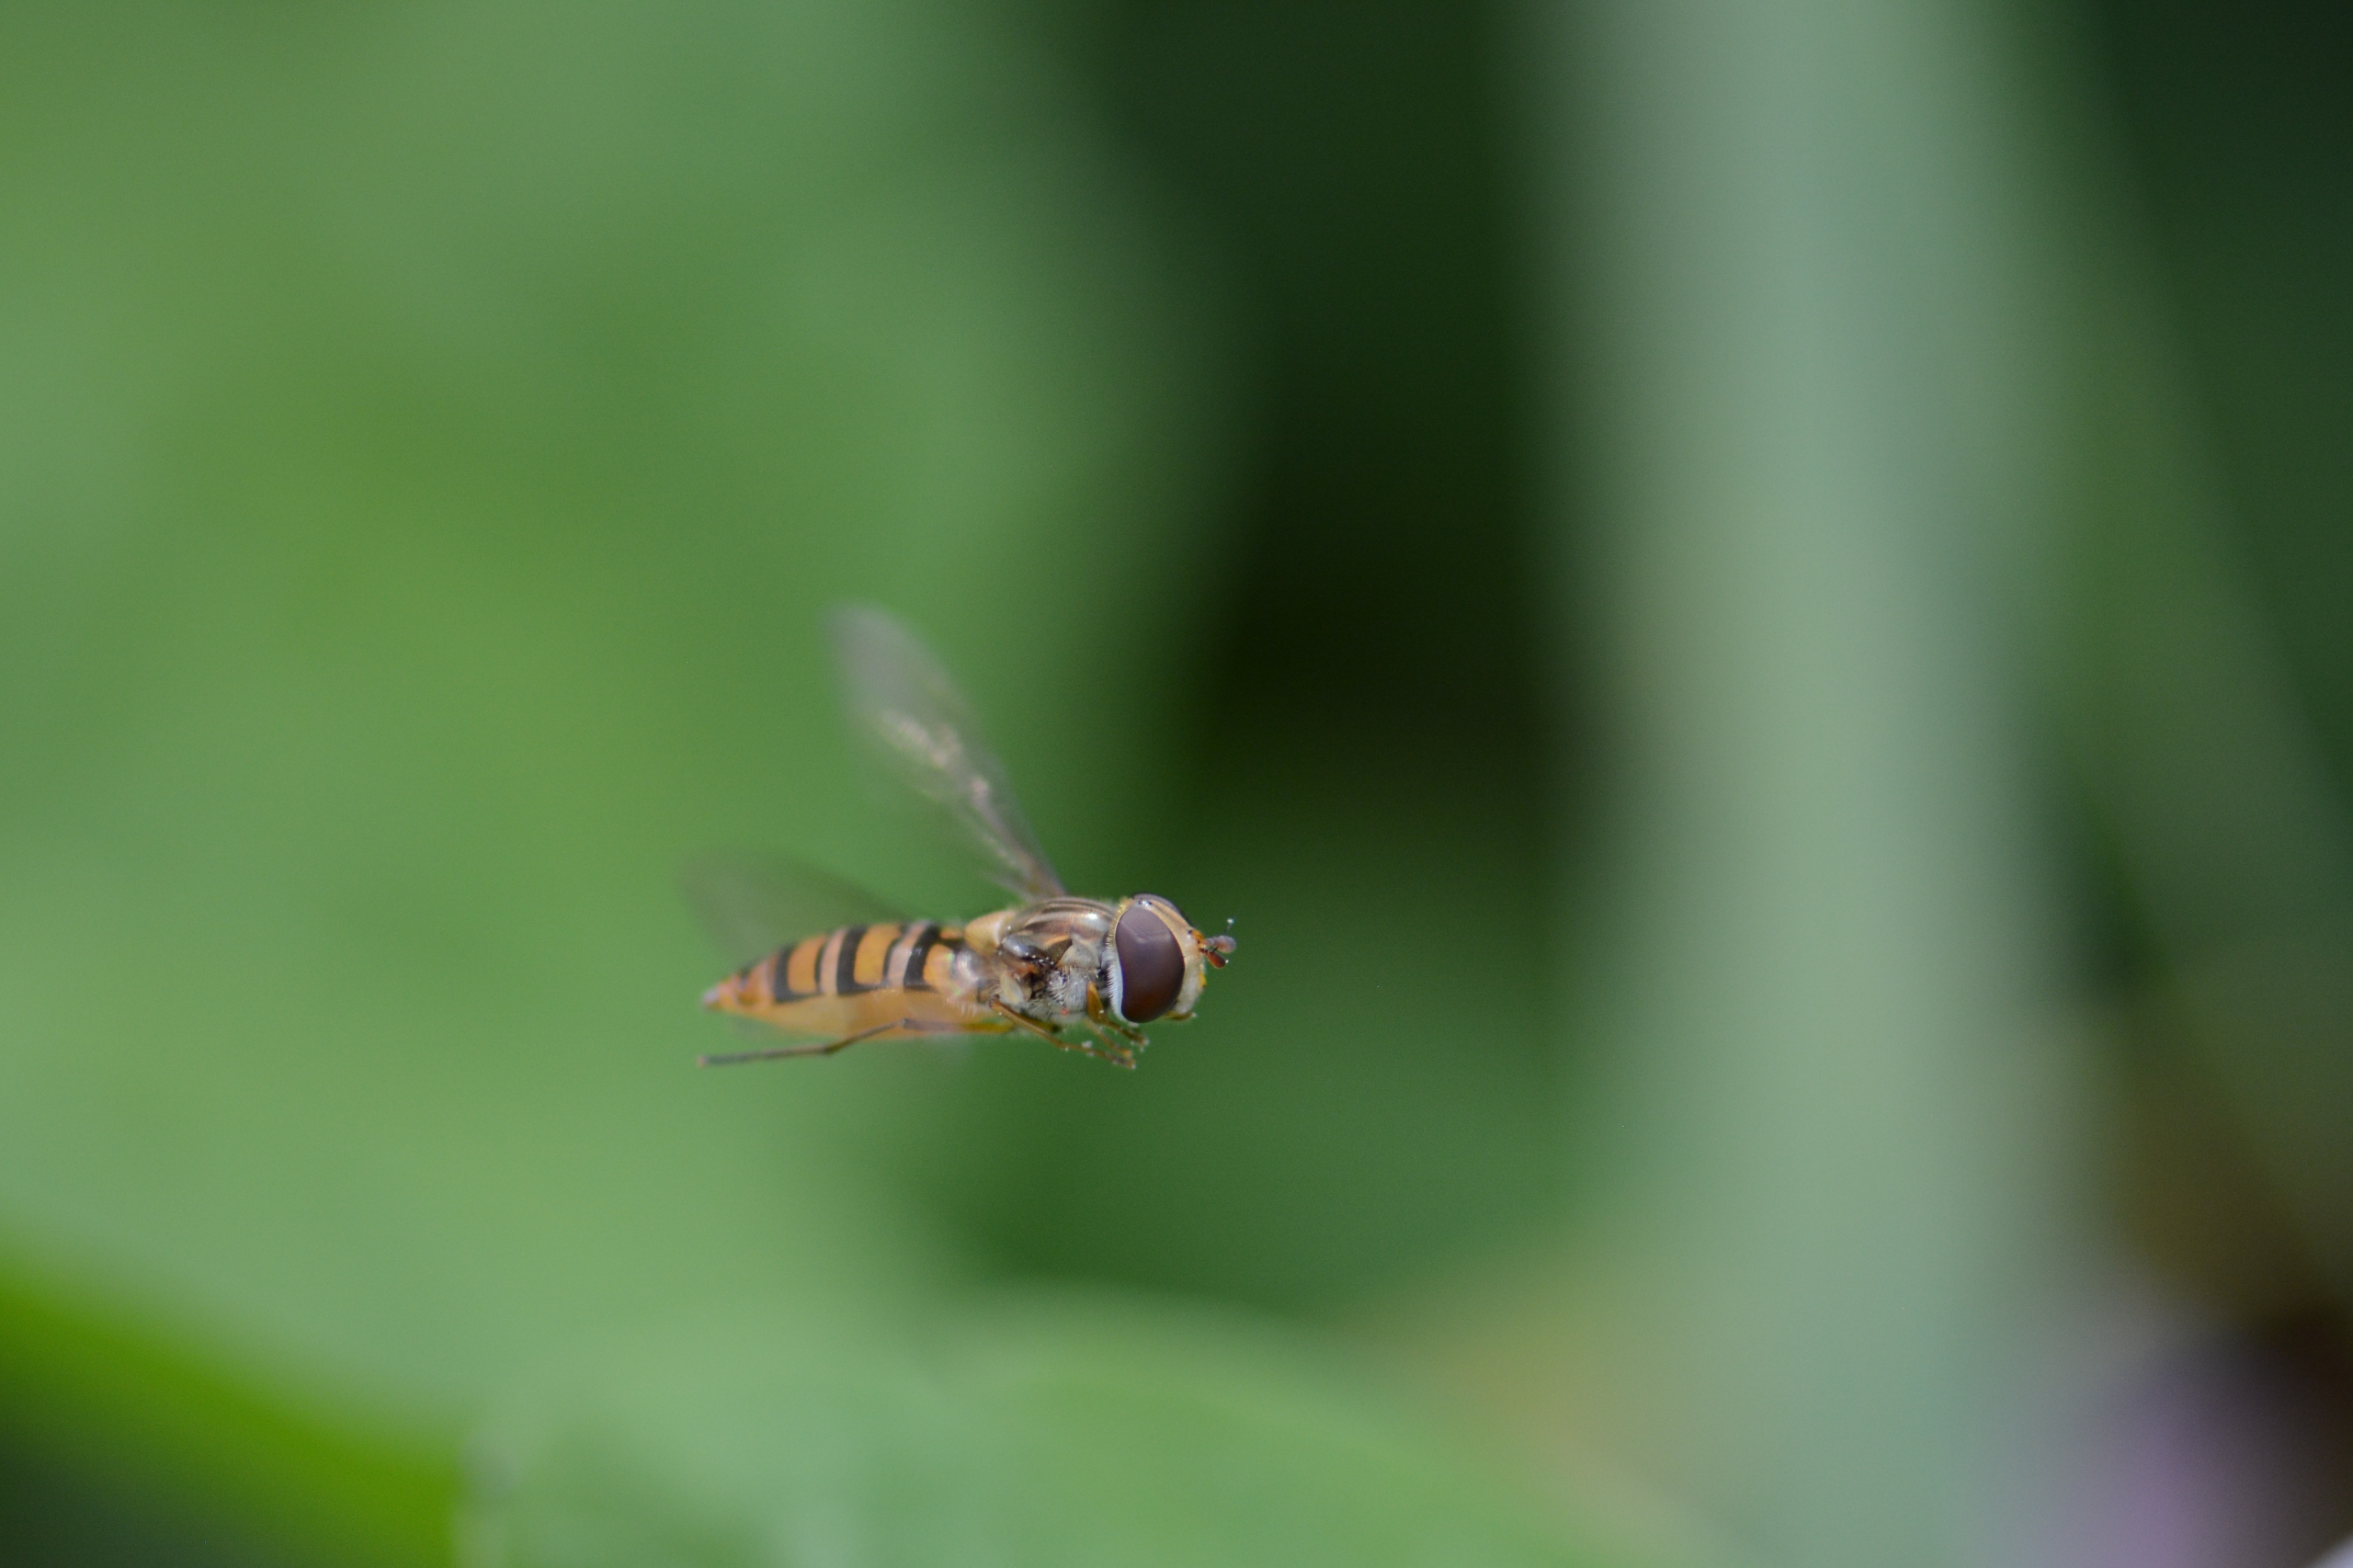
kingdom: Animalia
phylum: Arthropoda
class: Insecta
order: Diptera
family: Syrphidae
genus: Episyrphus
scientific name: Episyrphus balteatus
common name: Dobbeltbåndet svirreflue
